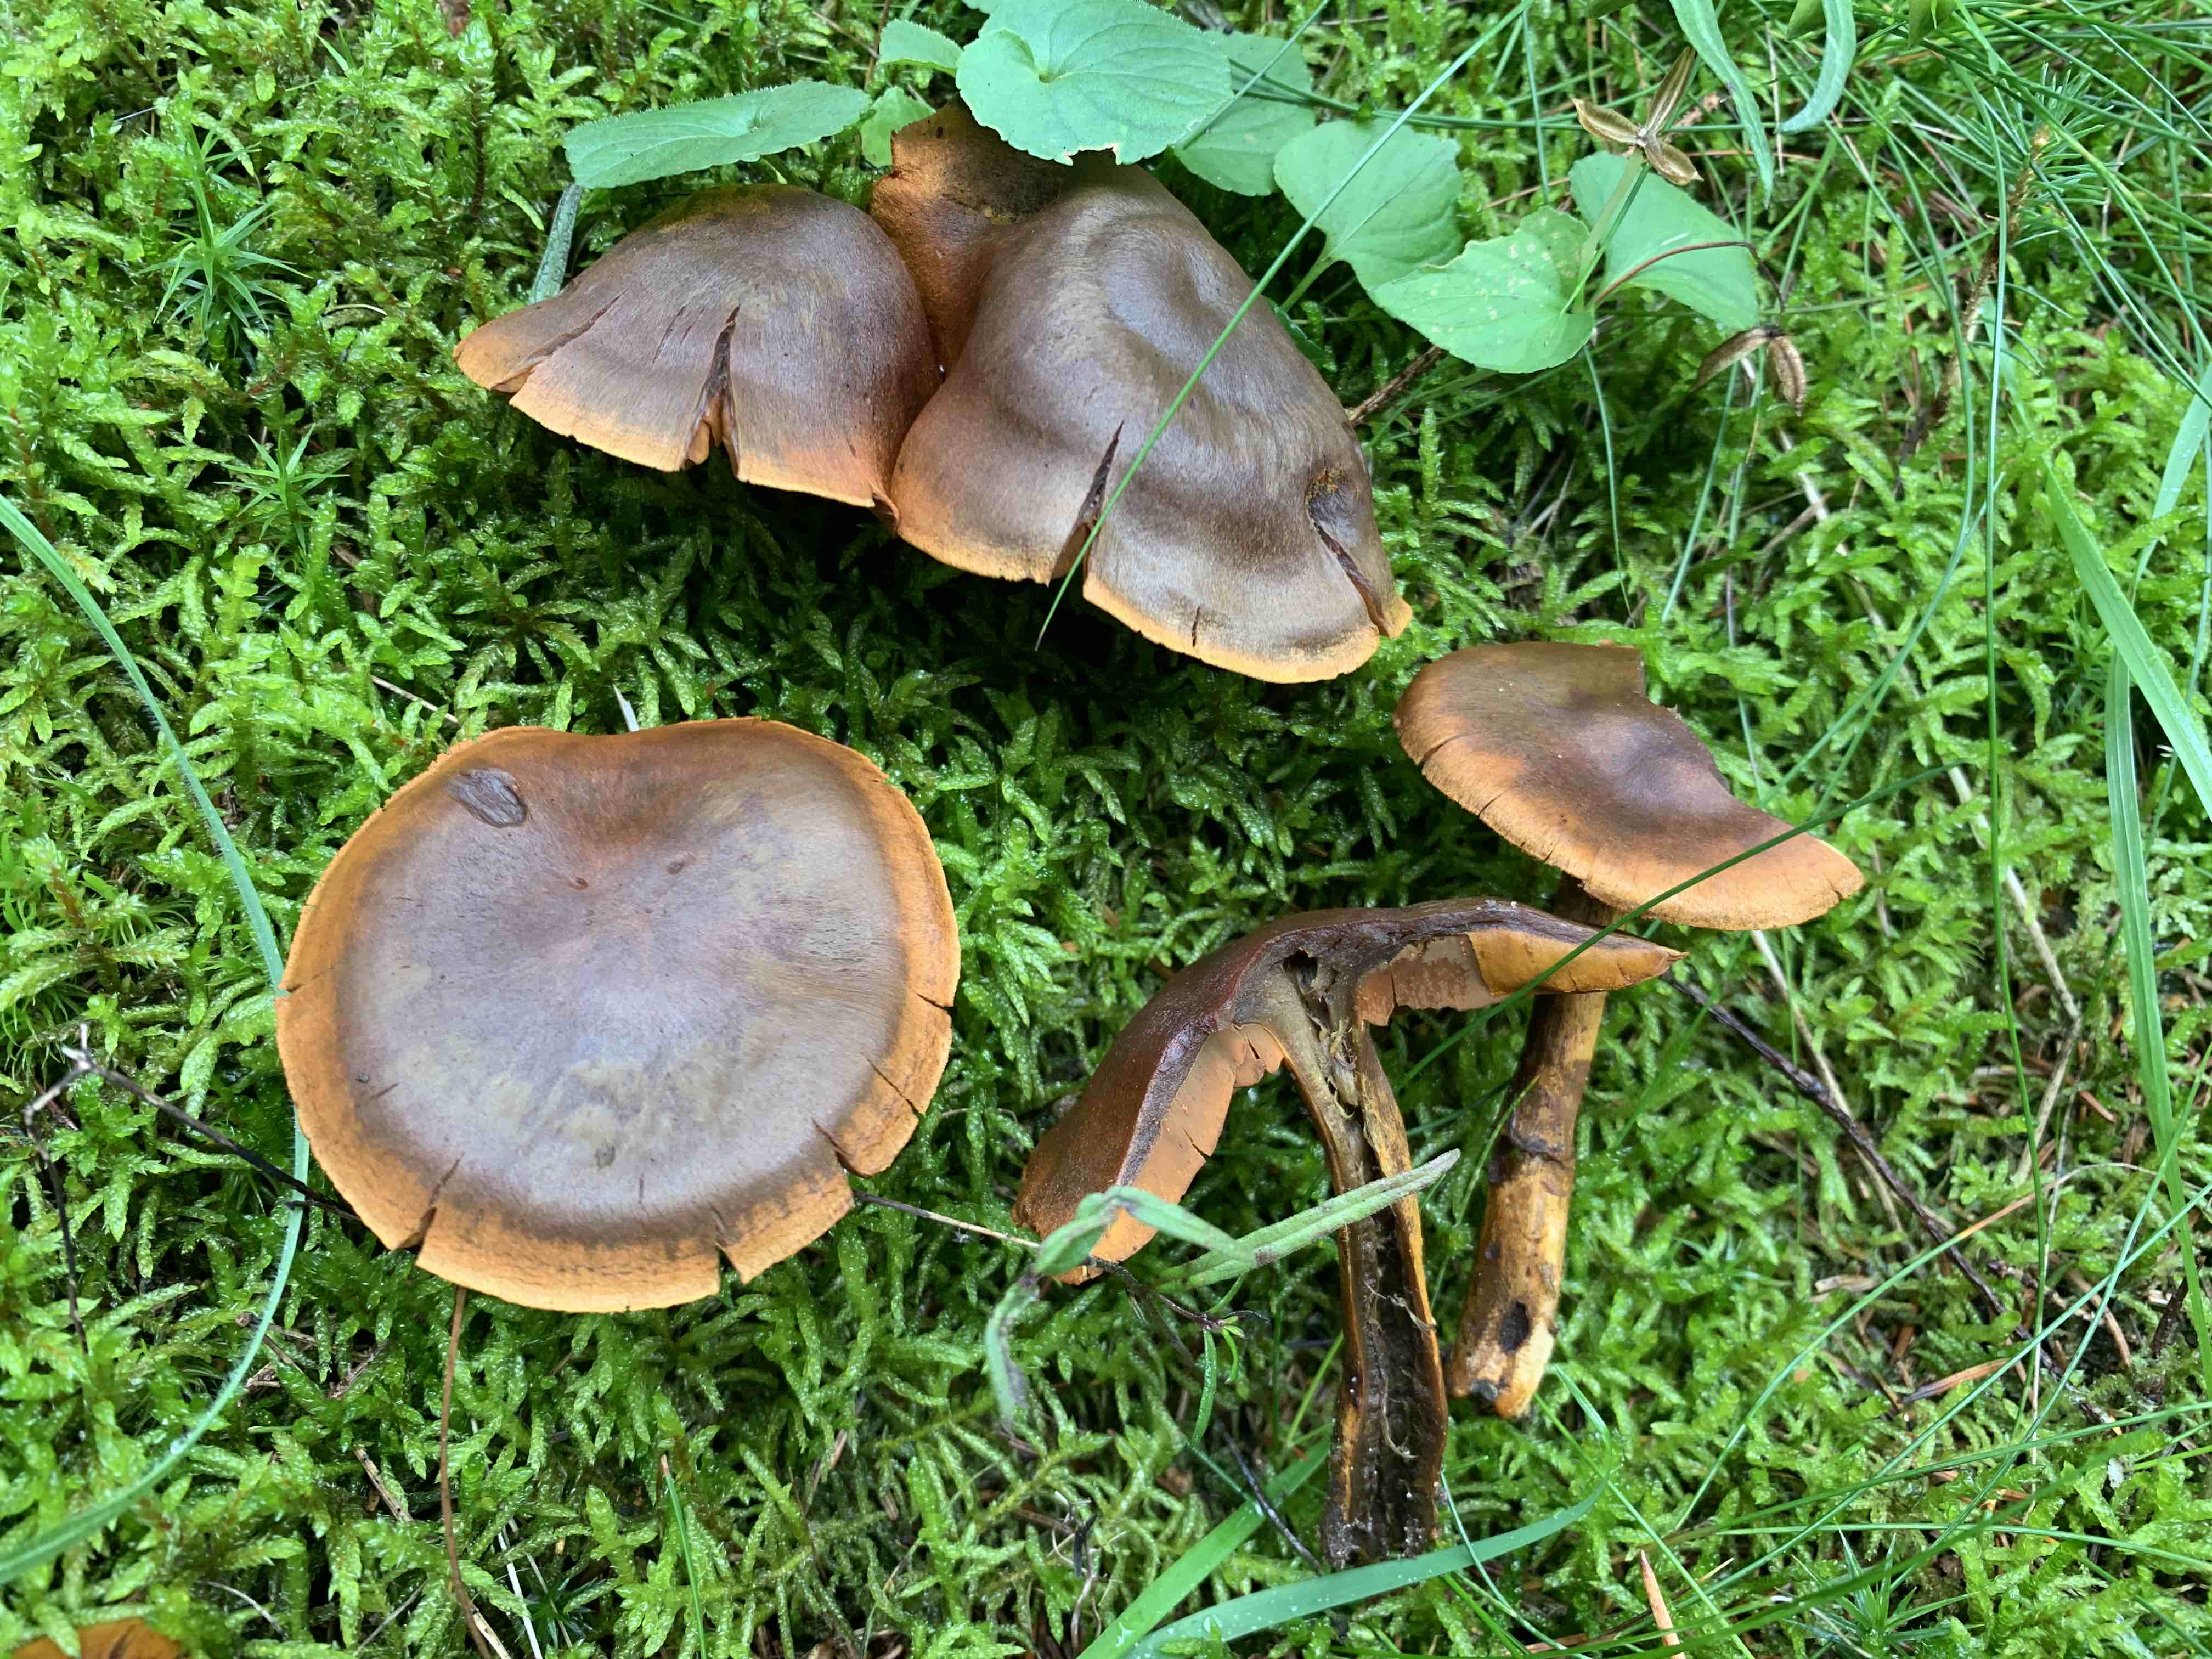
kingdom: Fungi
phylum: Basidiomycota
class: Agaricomycetes
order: Agaricales
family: Cortinariaceae
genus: Cortinarius
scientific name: Cortinarius malicorius
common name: grønkødet slørhat
